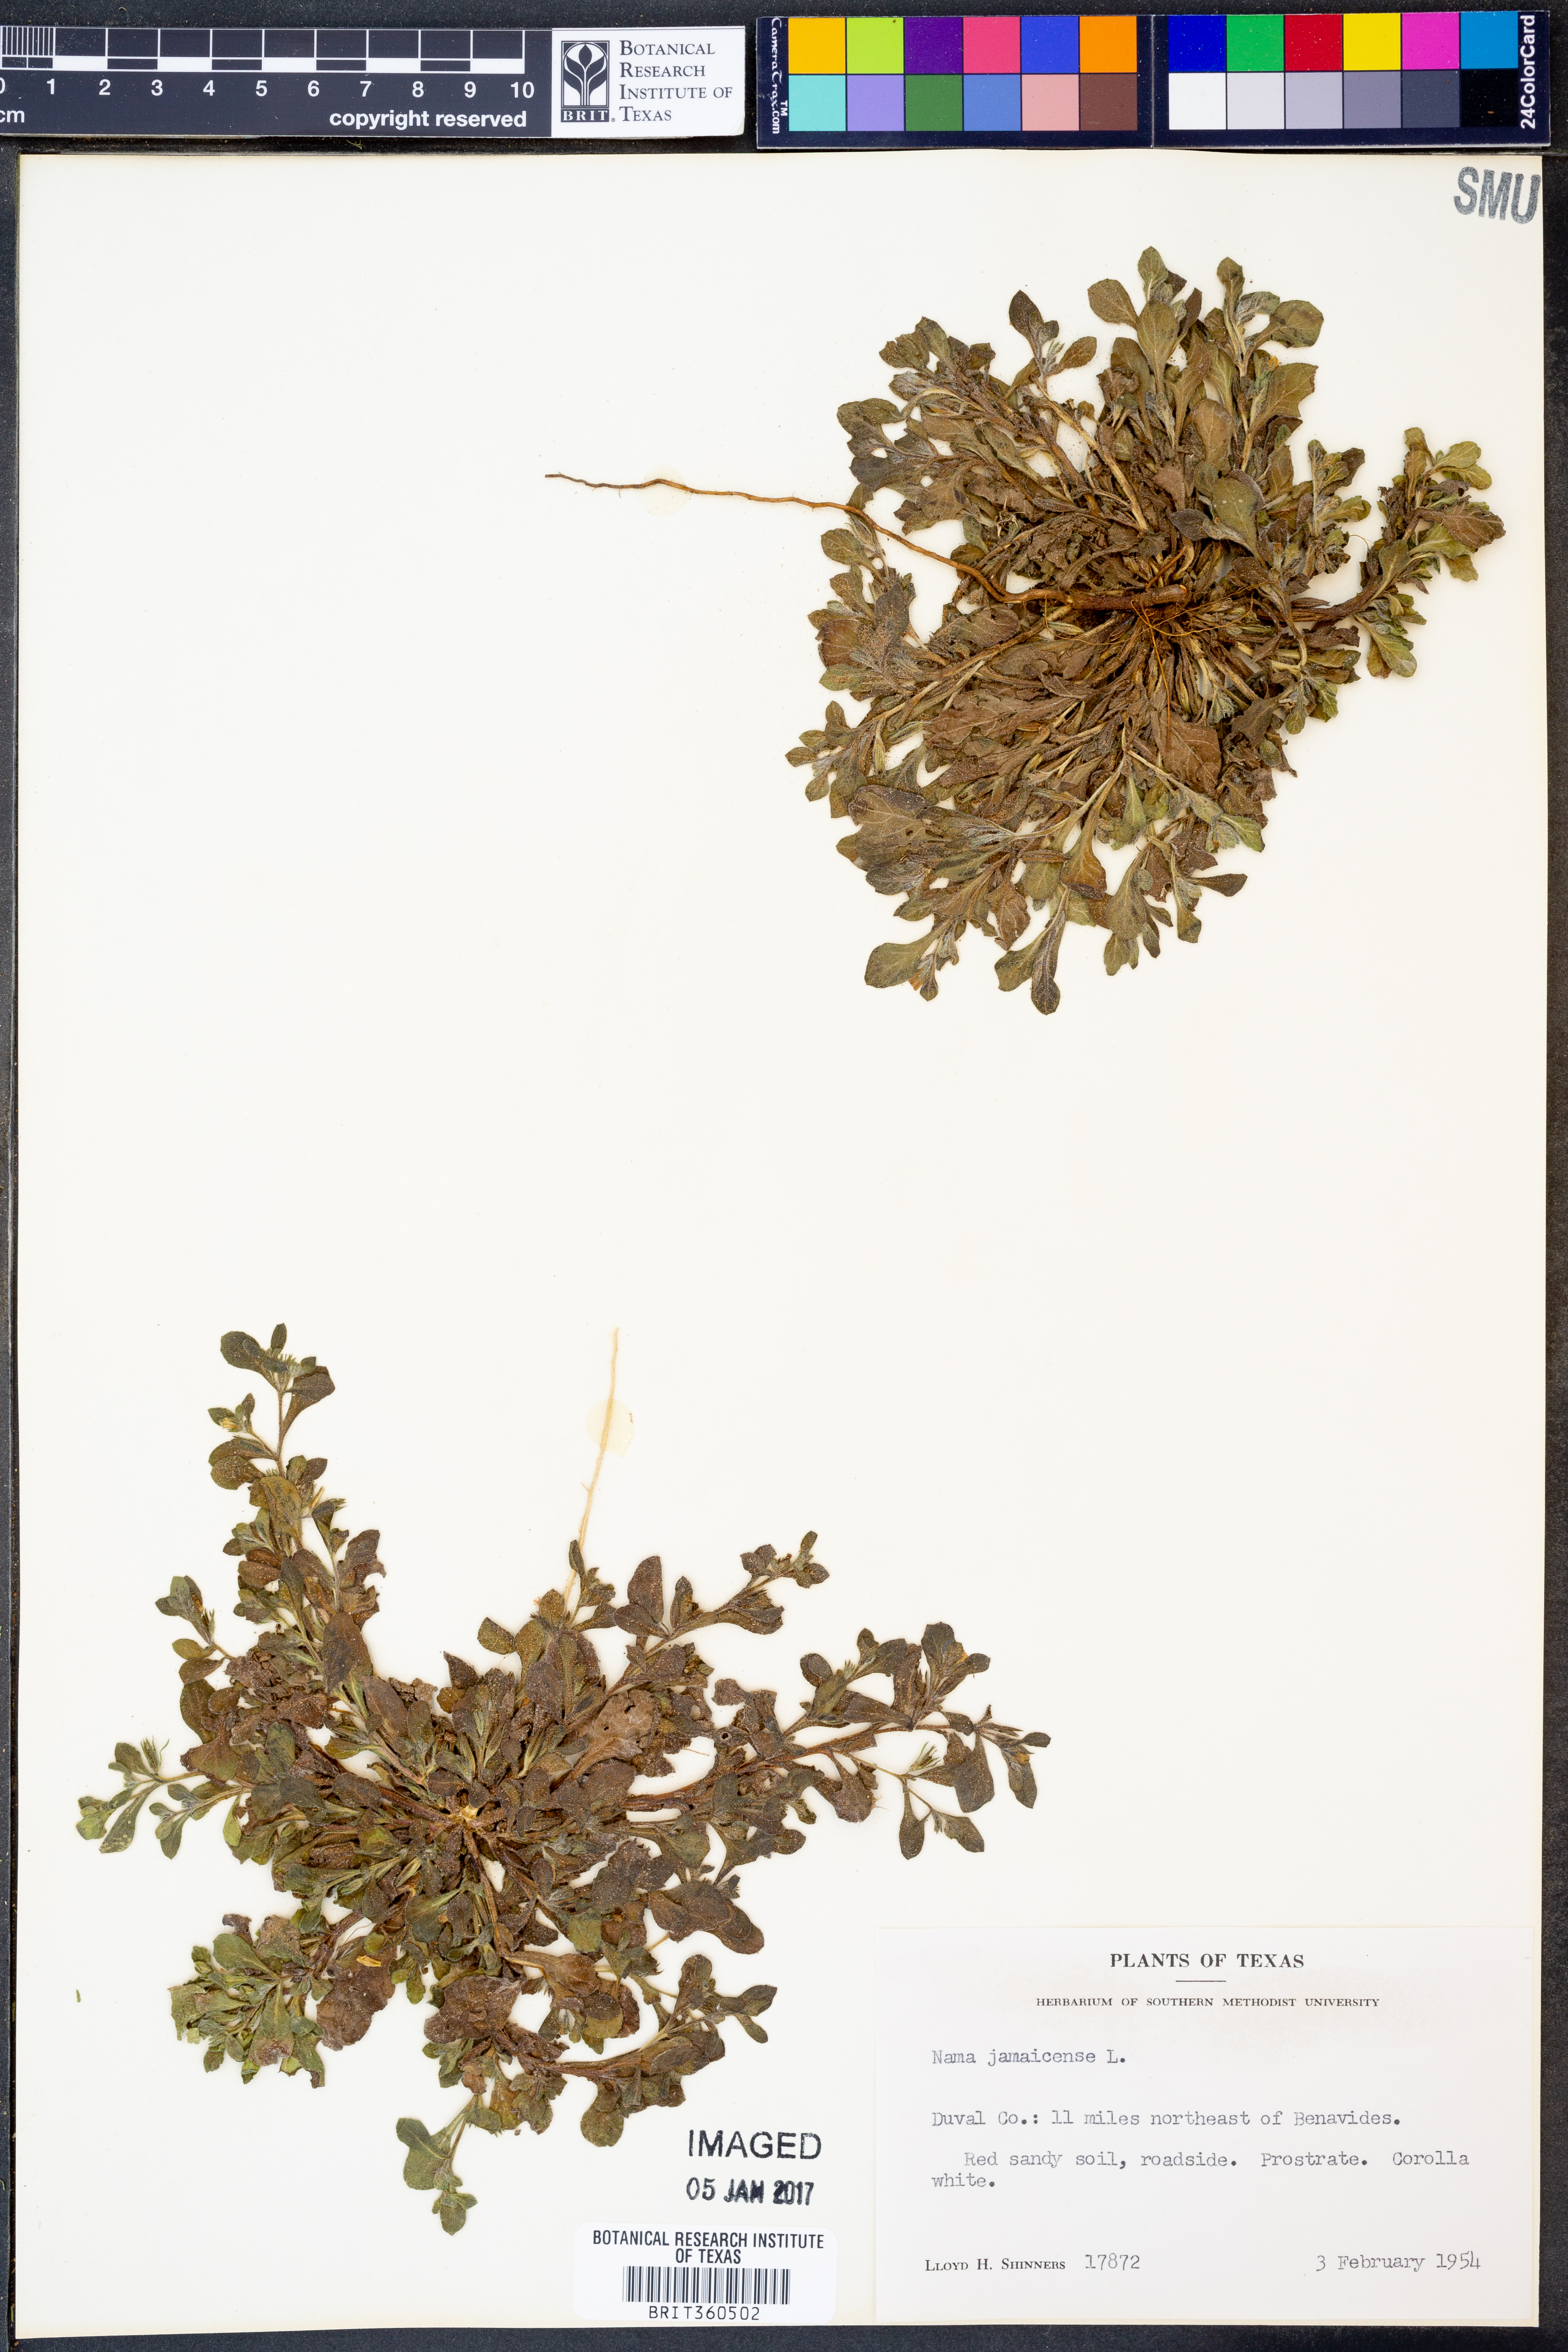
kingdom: Plantae
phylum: Tracheophyta
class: Magnoliopsida
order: Boraginales
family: Namaceae
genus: Nama
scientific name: Nama jamaicense
